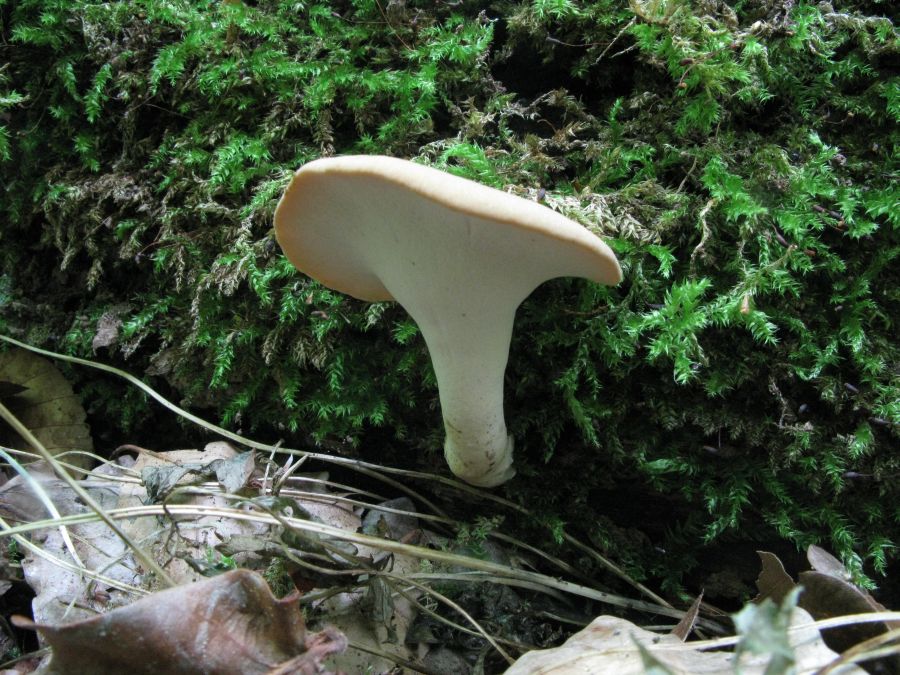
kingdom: Fungi
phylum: Basidiomycota
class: Agaricomycetes
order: Polyporales
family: Polyporaceae
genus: Cerioporus
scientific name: Cerioporus varius
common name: foranderlig stilkporesvamp
